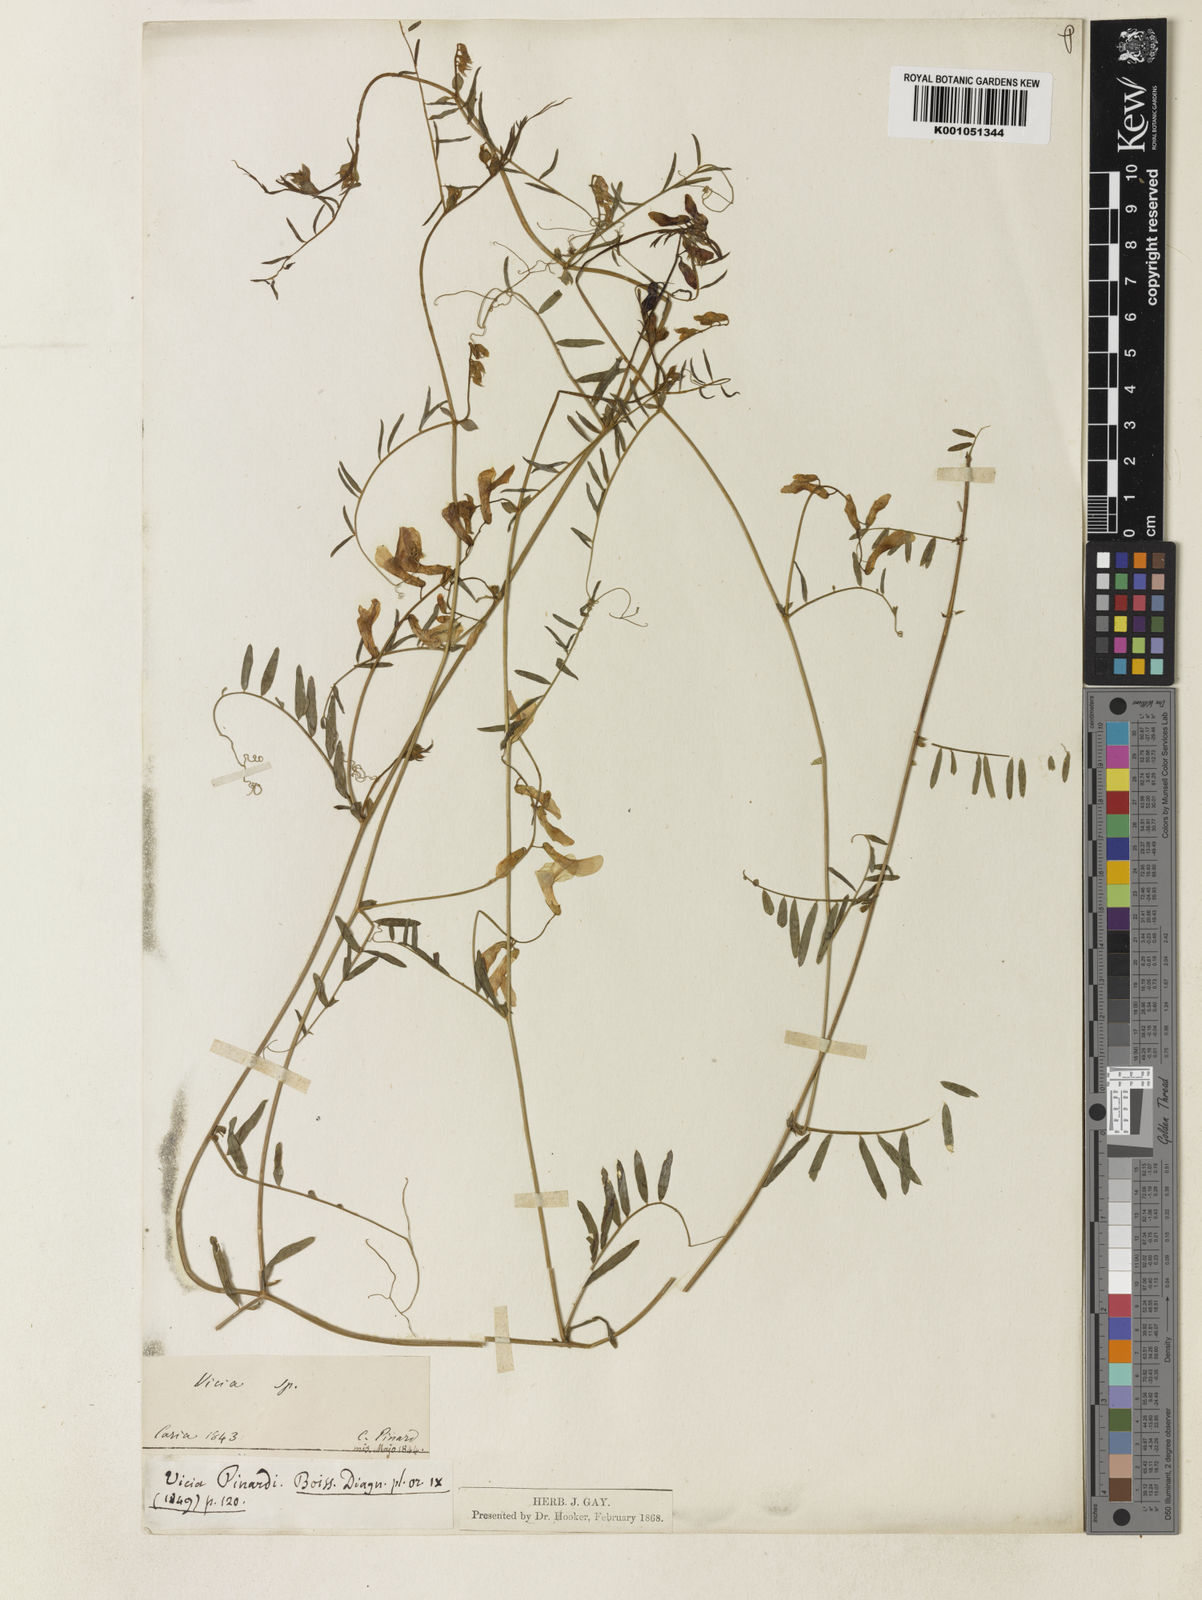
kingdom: Plantae
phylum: Tracheophyta
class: Magnoliopsida
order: Fabales
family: Fabaceae
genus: Vicia
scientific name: Vicia
